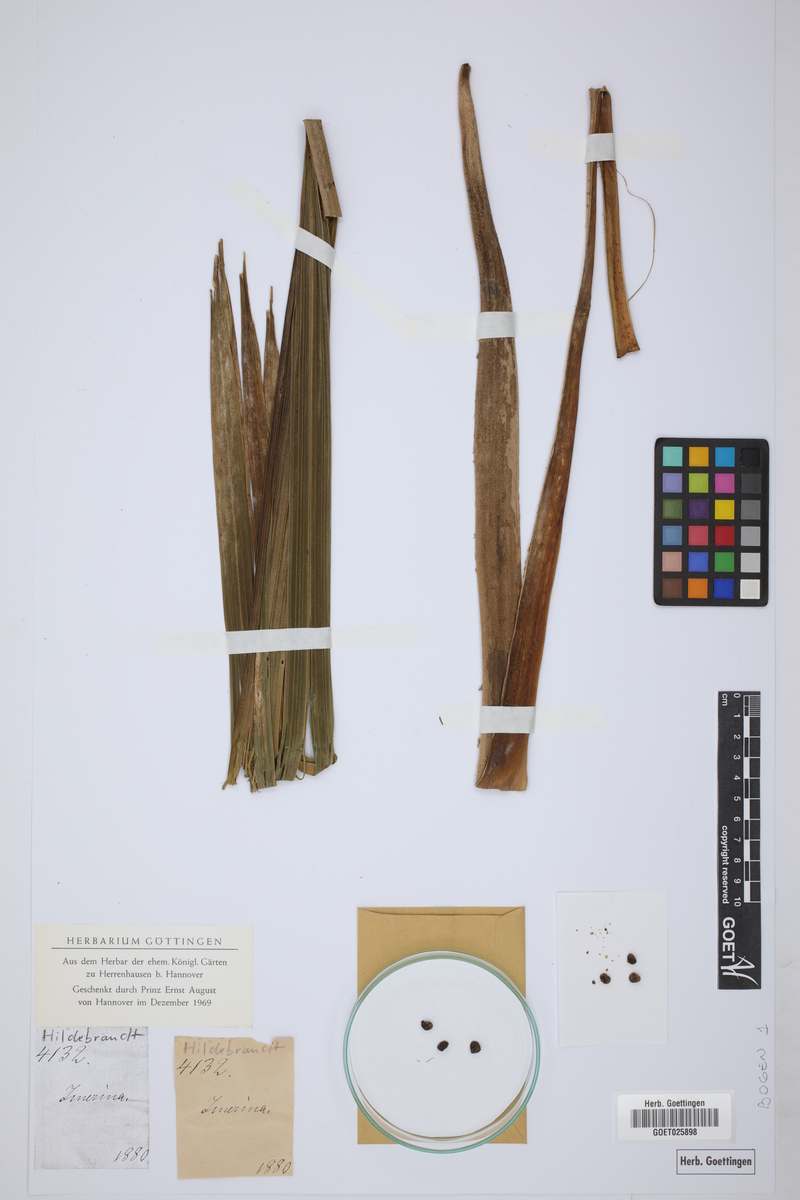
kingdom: Plantae
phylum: Tracheophyta
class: Liliopsida
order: Arecales
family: Arecaceae
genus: Ravenea
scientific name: Ravenea madagascariensis
